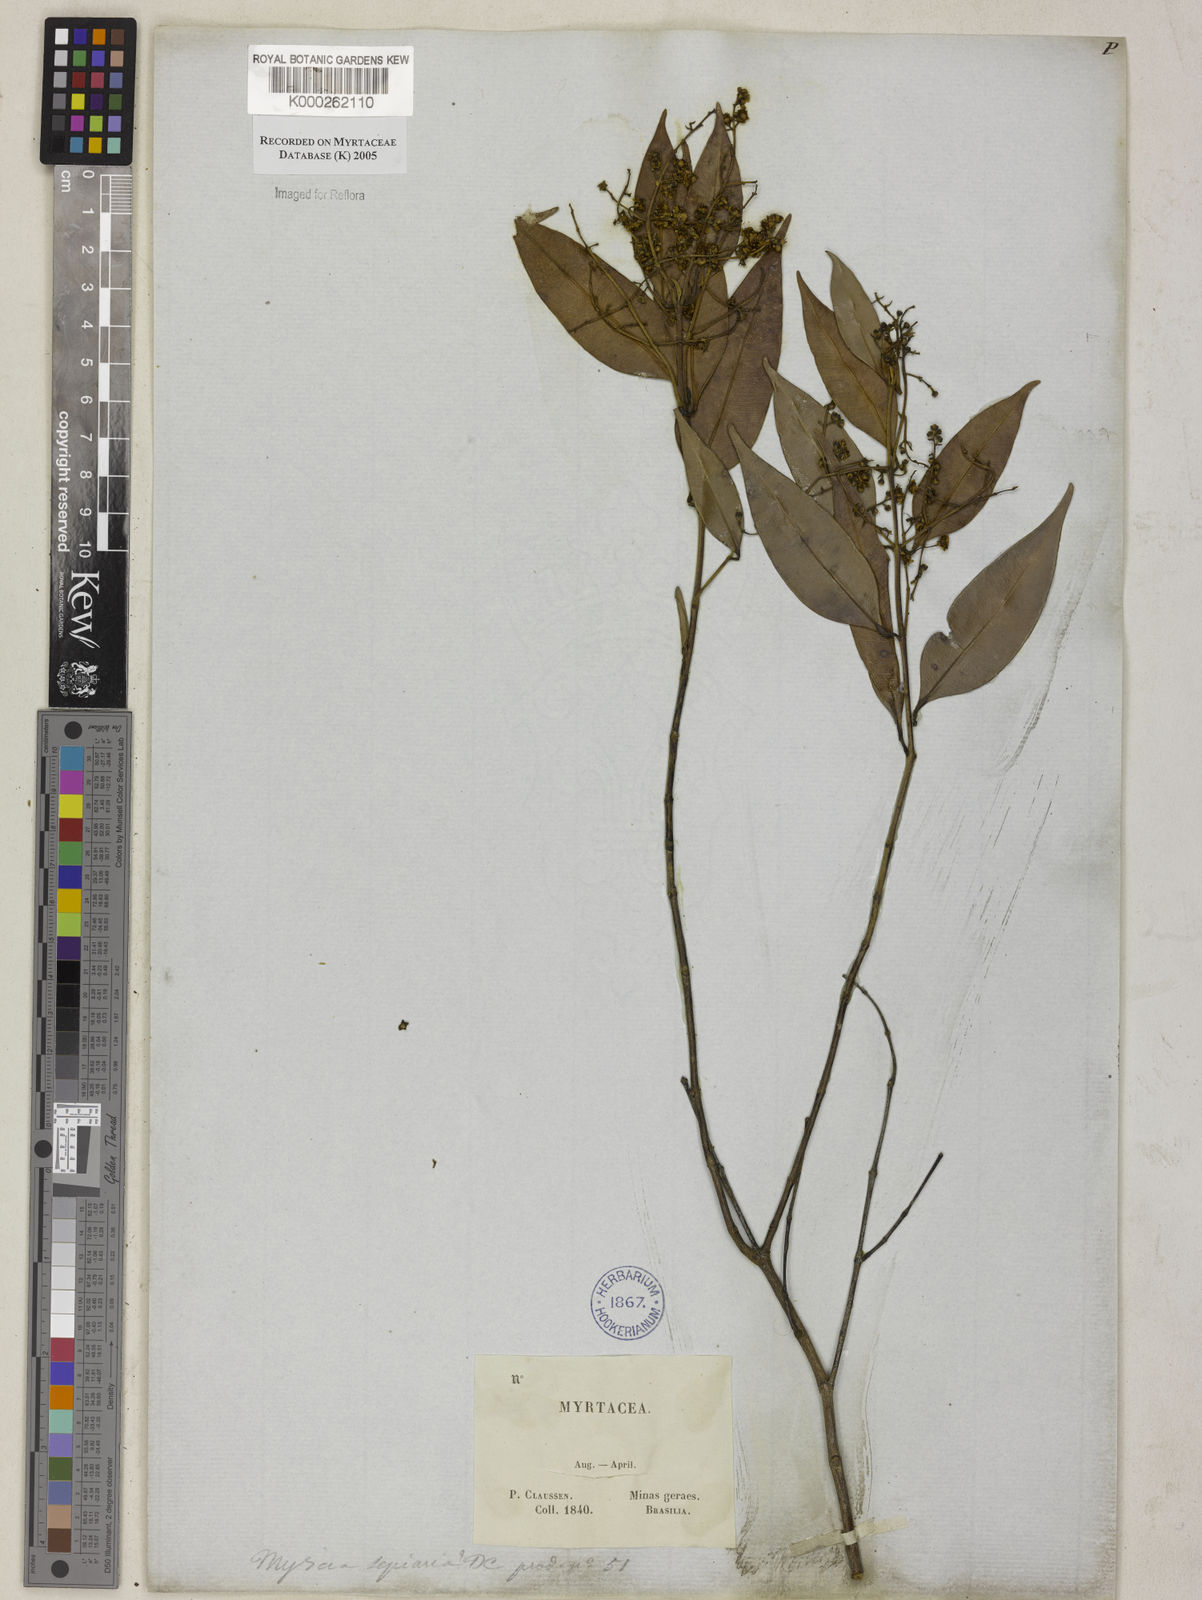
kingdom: Plantae
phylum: Tracheophyta
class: Magnoliopsida
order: Myrtales
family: Myrtaceae
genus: Myrcia
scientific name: Myrcia splendens
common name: Surinam cherry
